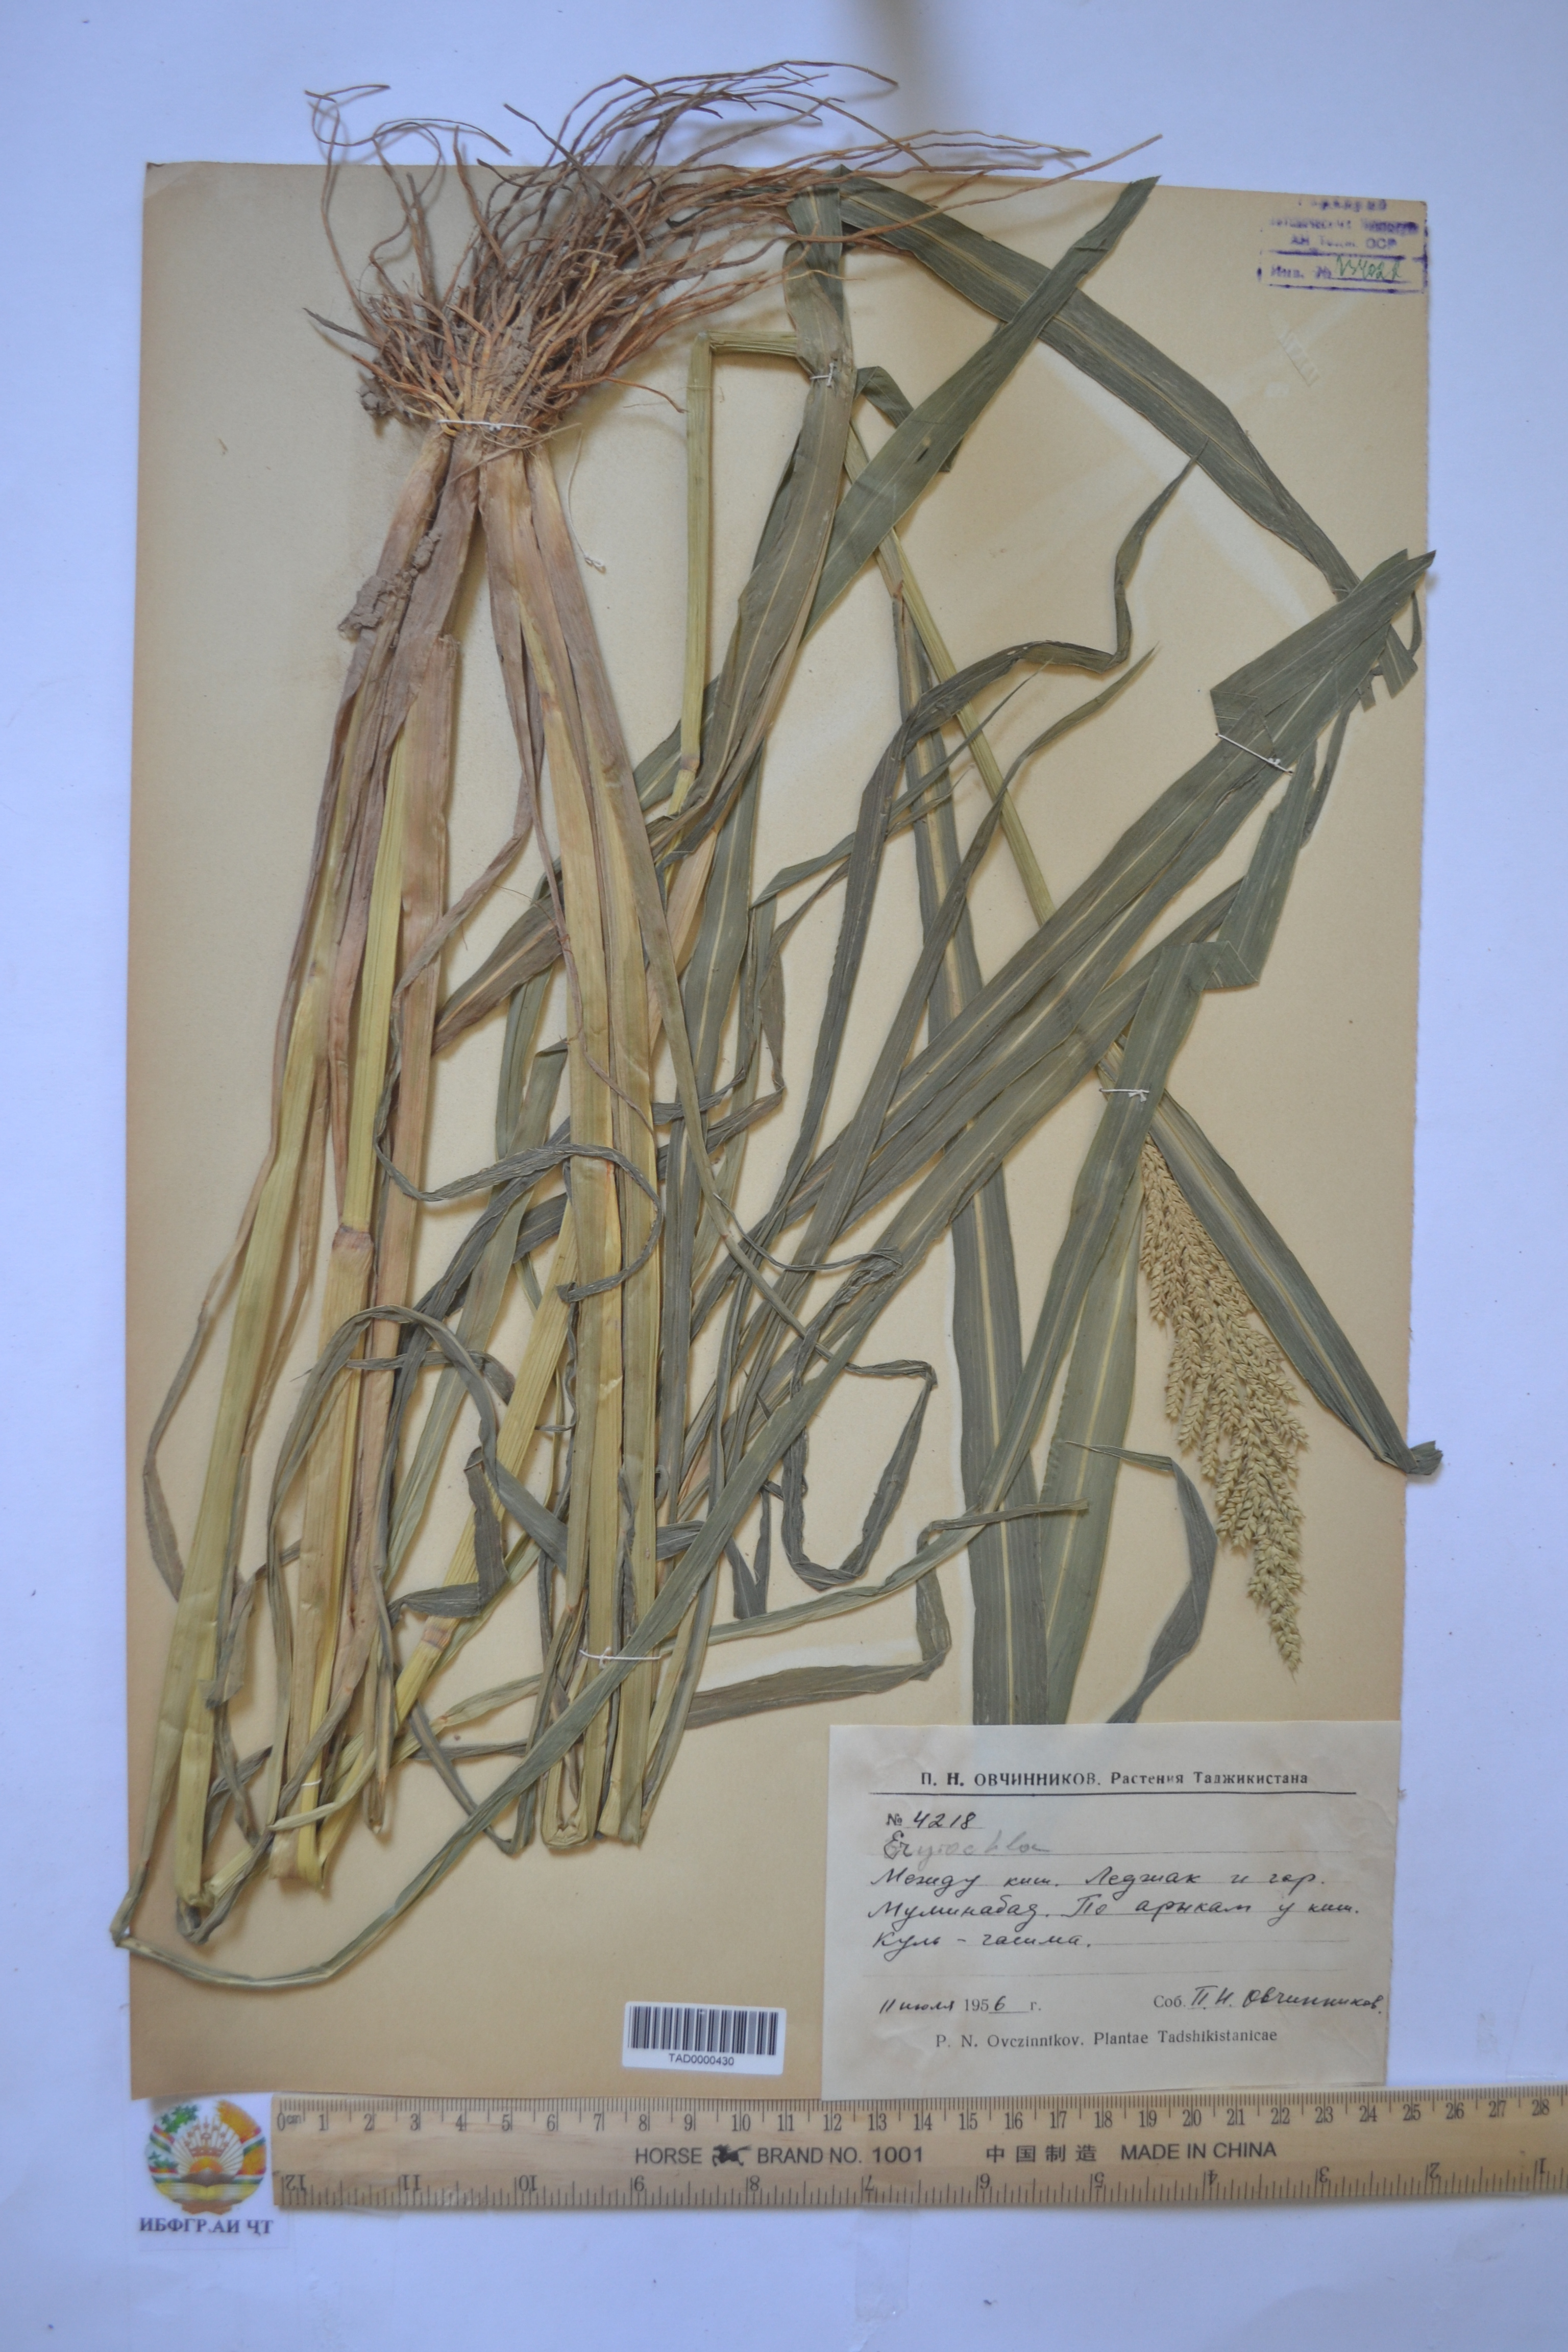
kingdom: Plantae
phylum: Tracheophyta
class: Liliopsida
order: Poales
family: Poaceae
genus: Echinochloa
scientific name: Echinochloa oryzoides
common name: Early water grass
